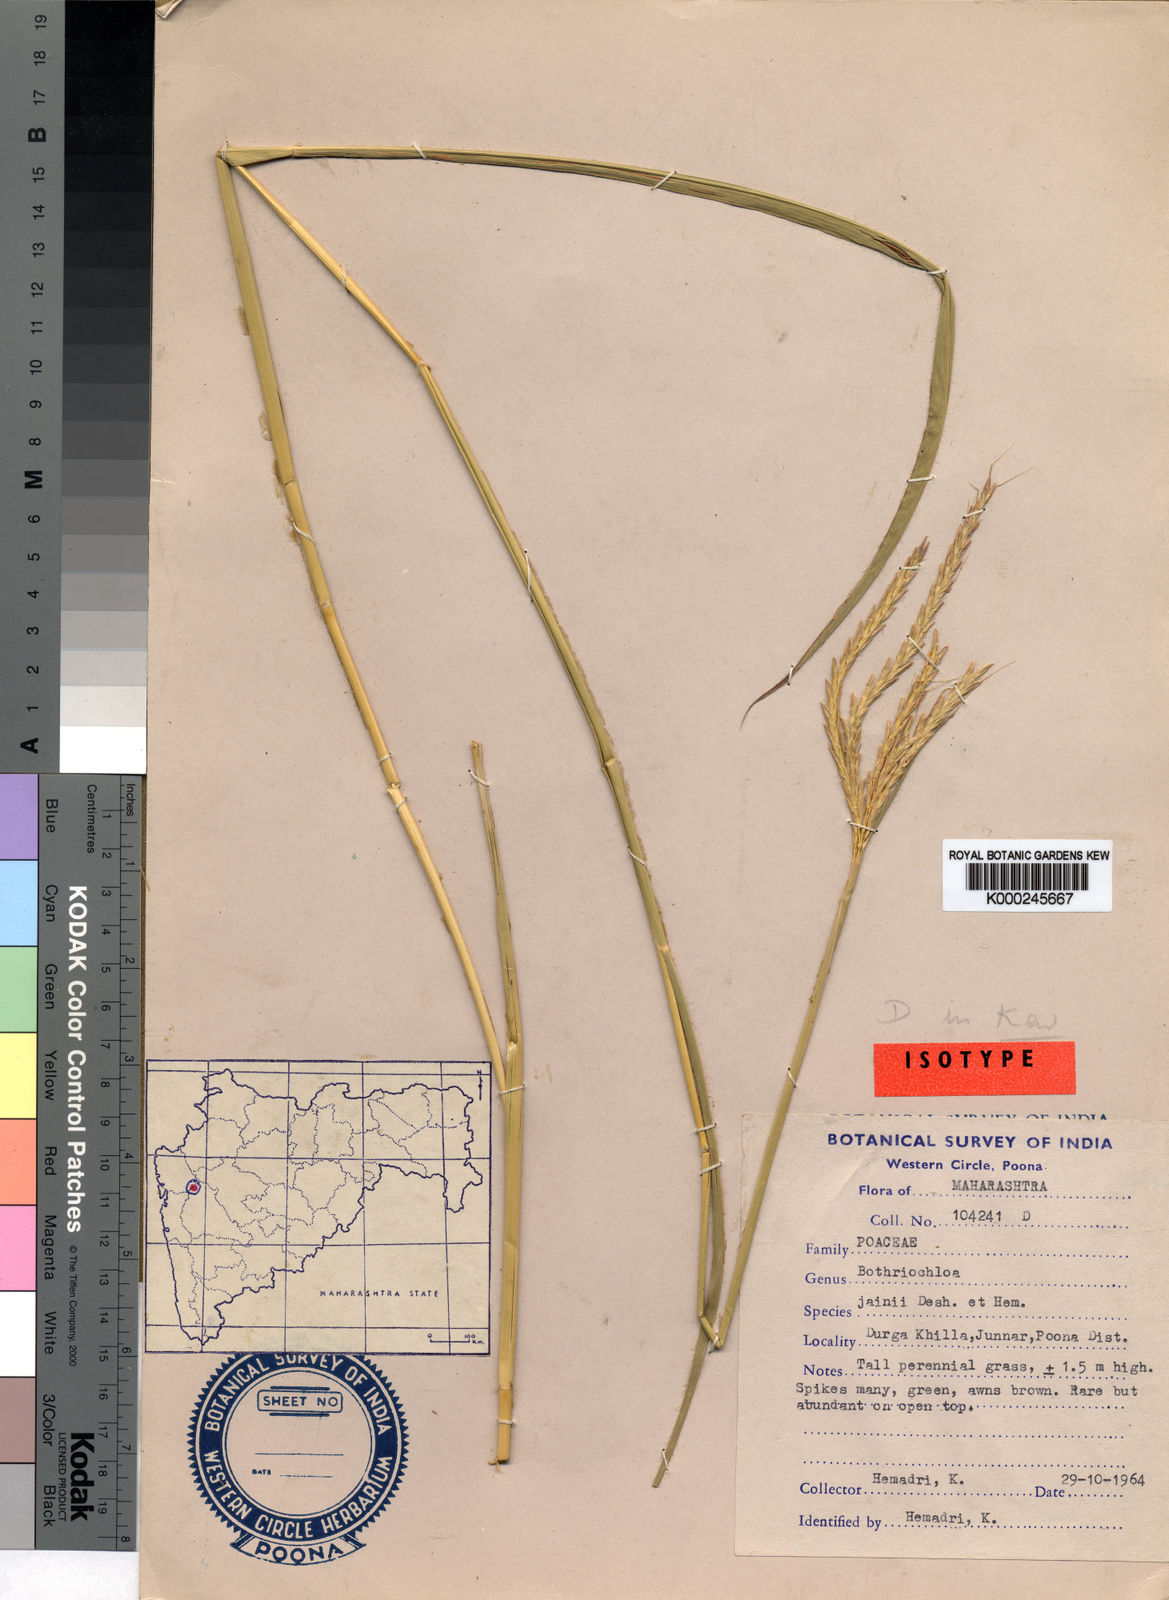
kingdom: Plantae
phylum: Tracheophyta
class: Liliopsida
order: Poales
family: Poaceae
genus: Bothriochloa
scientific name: Bothriochloa jainii
